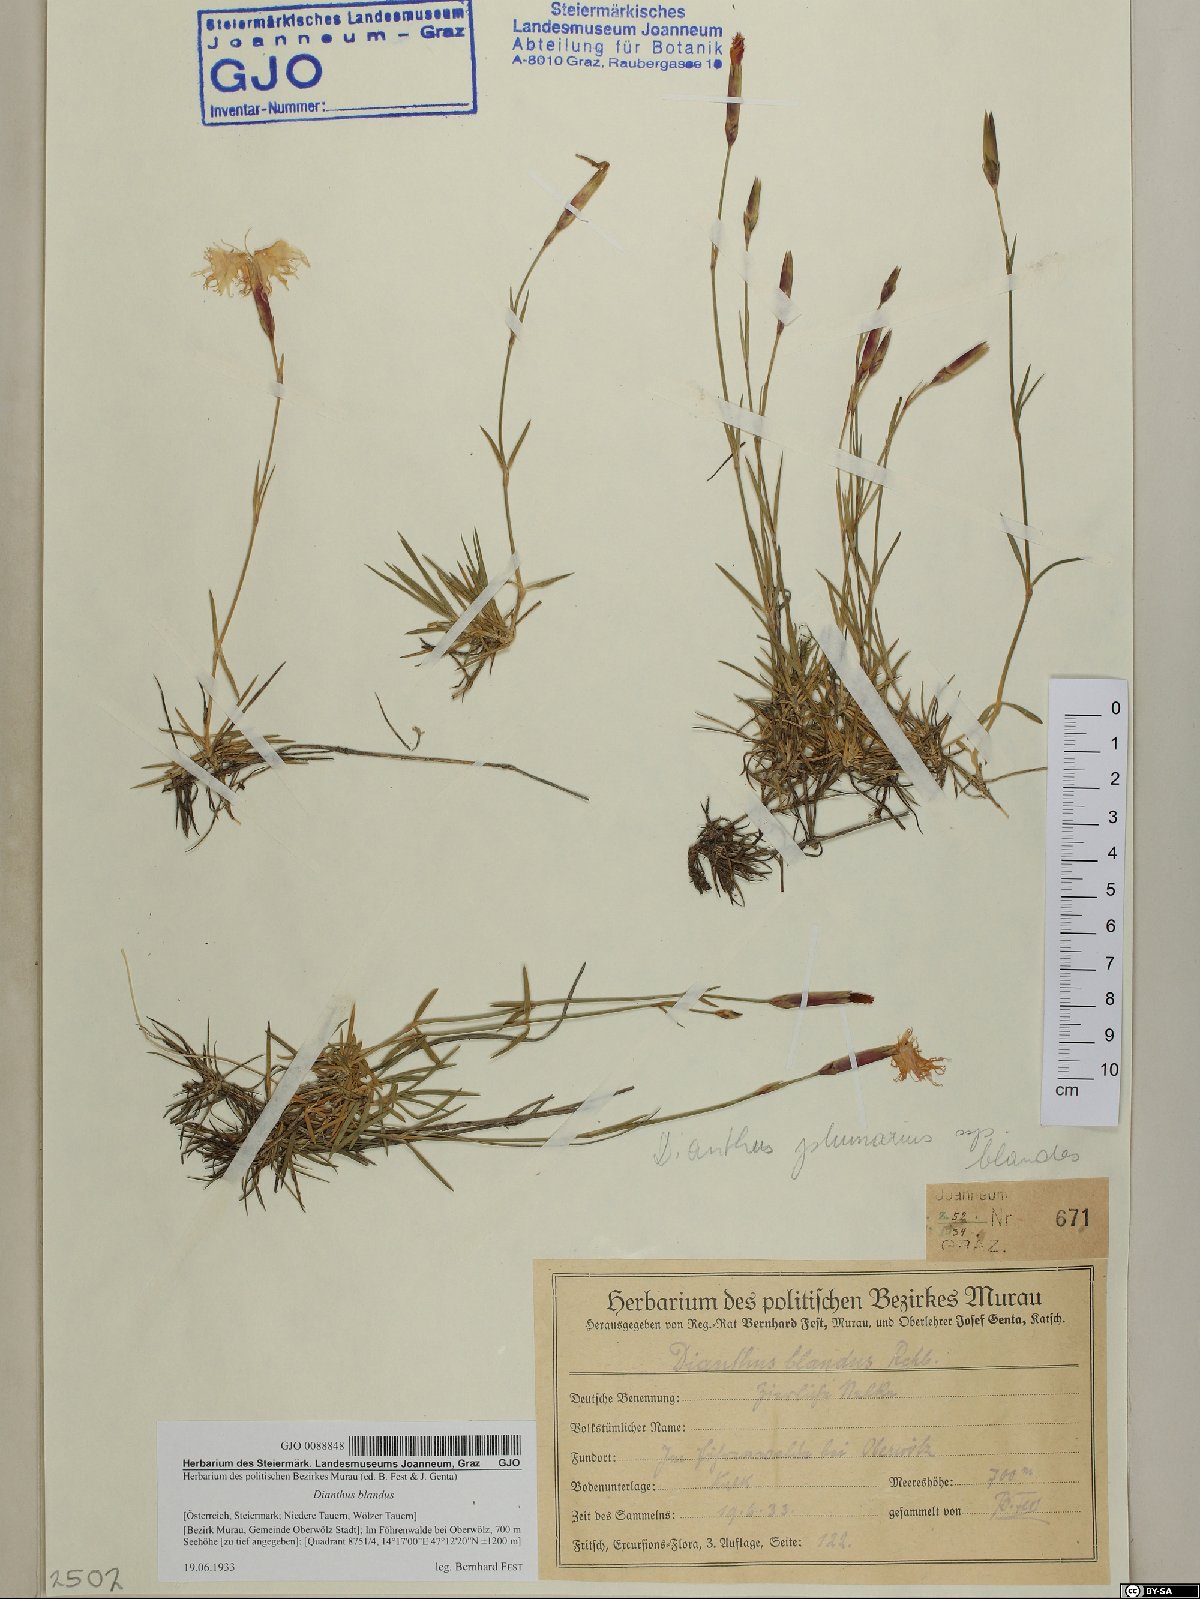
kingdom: Plantae
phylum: Tracheophyta
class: Magnoliopsida
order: Caryophyllales
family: Caryophyllaceae
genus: Dianthus
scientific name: Dianthus plumarius
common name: Pink
